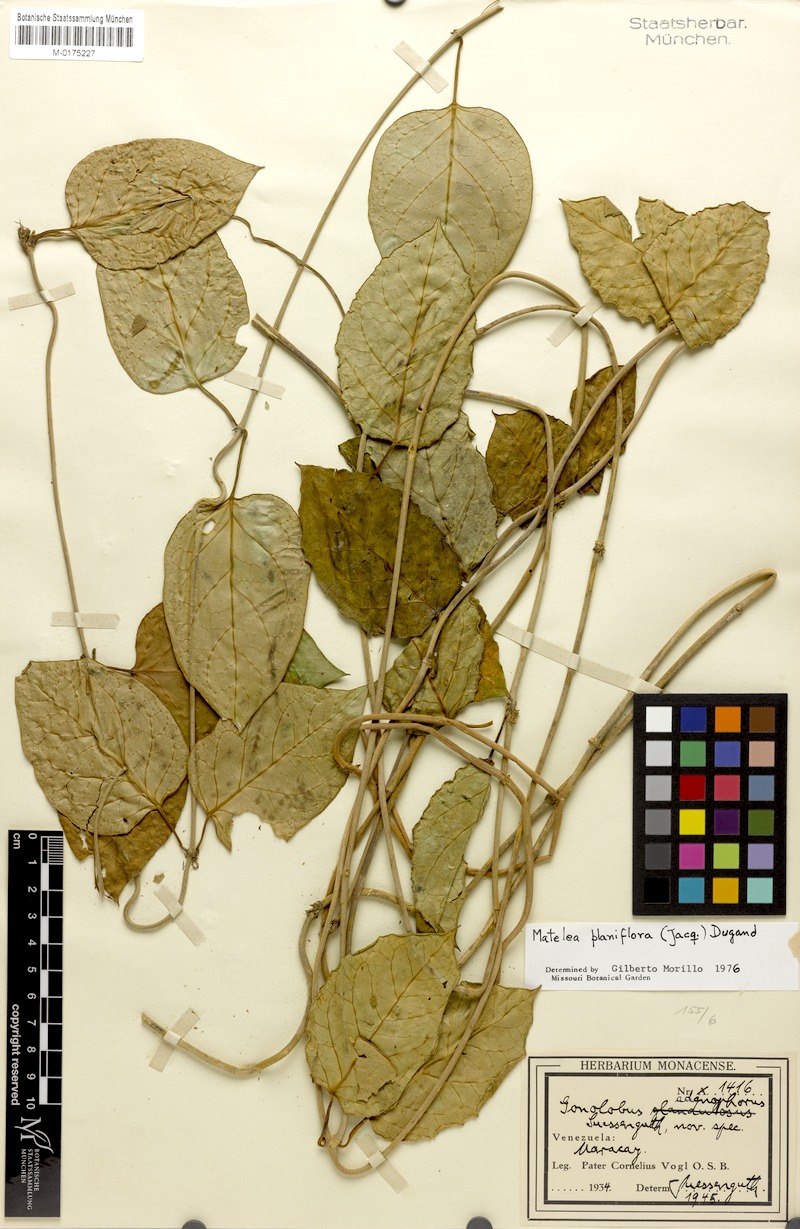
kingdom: Plantae
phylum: Tracheophyta
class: Magnoliopsida
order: Gentianales
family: Apocynaceae
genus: Atrostemma
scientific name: Atrostemma planiflorum
